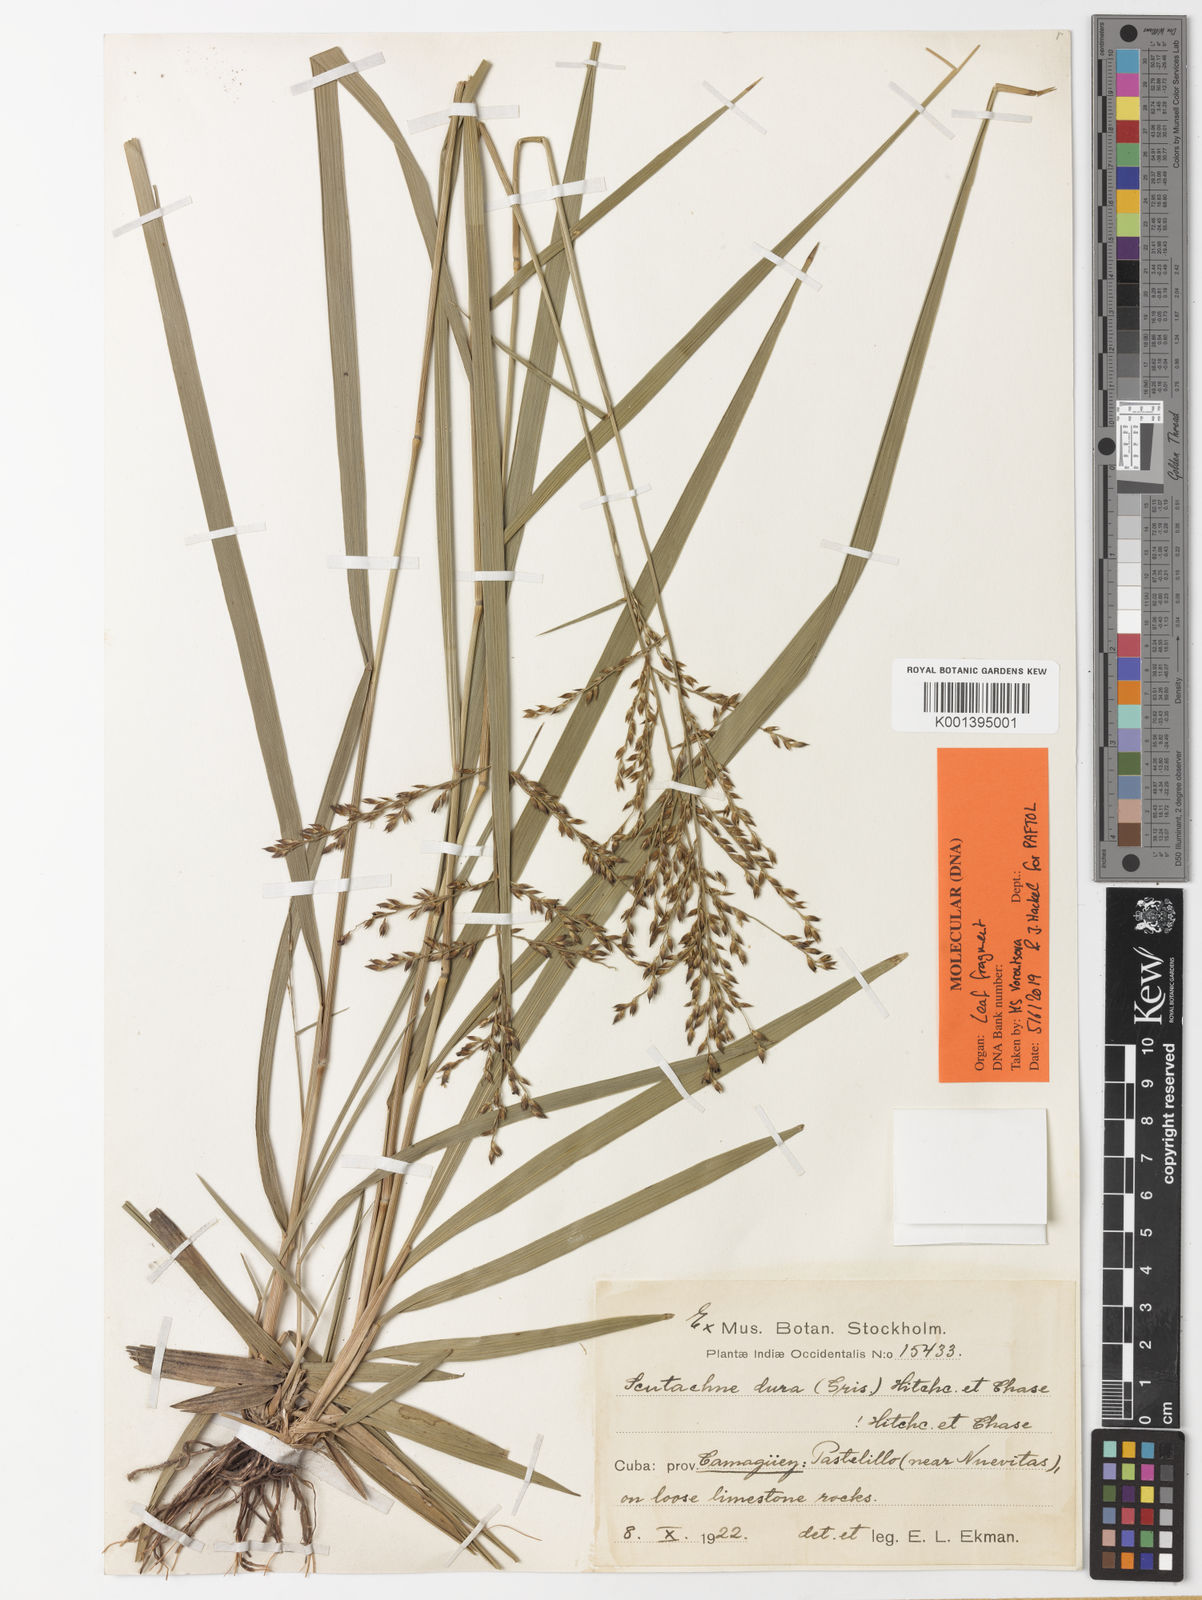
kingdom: Plantae
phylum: Tracheophyta
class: Liliopsida
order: Poales
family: Poaceae
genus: Scutachne
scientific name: Scutachne dura
